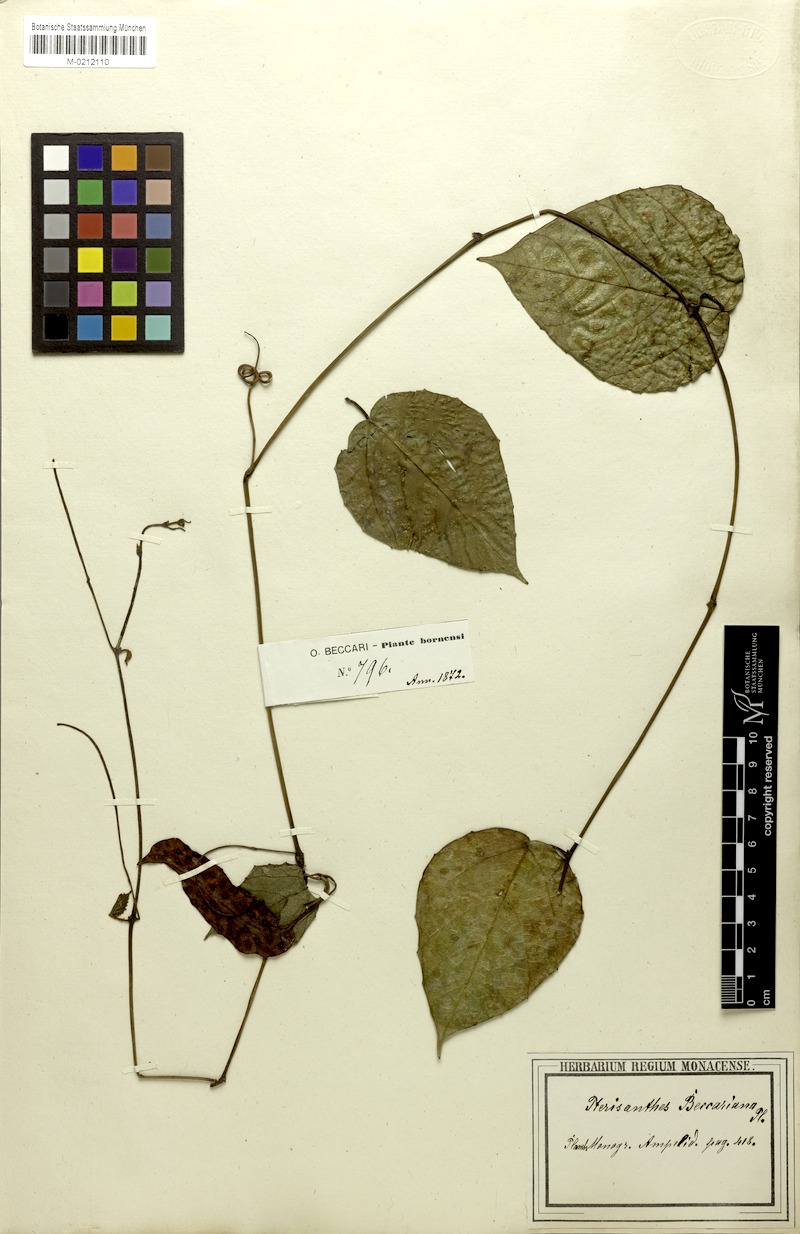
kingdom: Plantae
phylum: Tracheophyta
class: Magnoliopsida
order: Vitales
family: Vitaceae
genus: Pterisanthes
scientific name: Pterisanthes eriopoda
